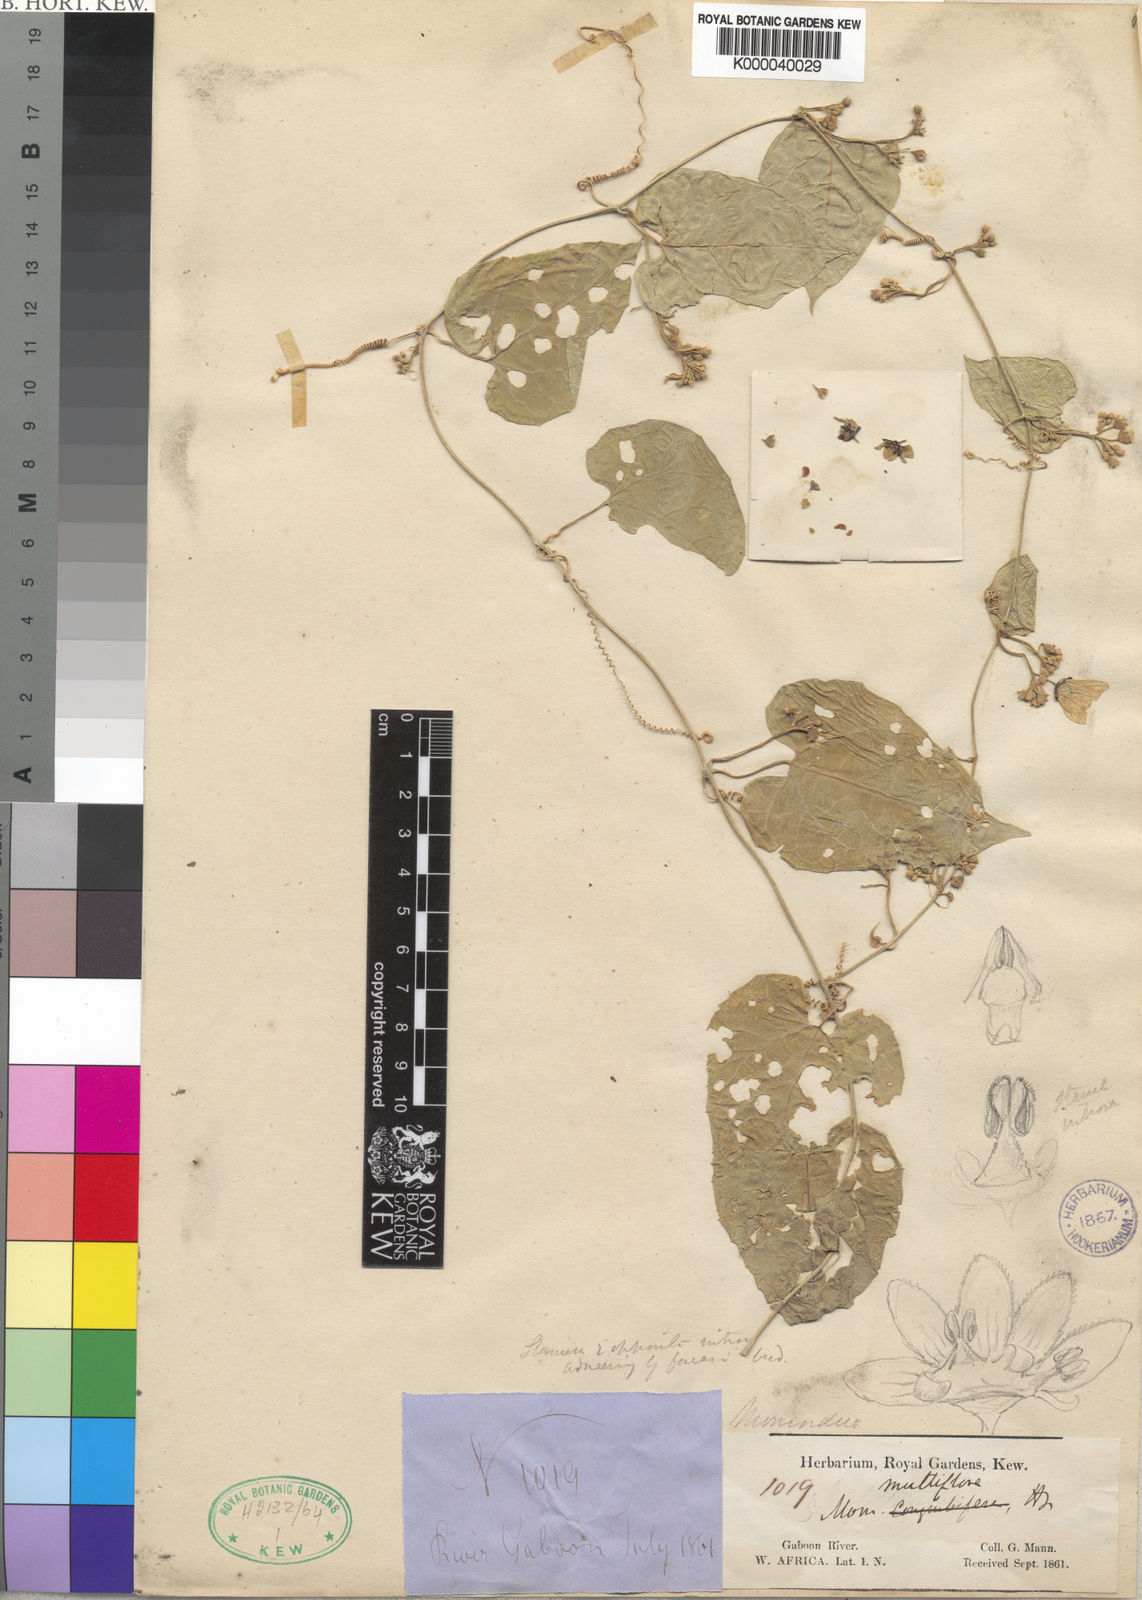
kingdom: Plantae
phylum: Tracheophyta
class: Magnoliopsida
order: Cucurbitales
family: Cucurbitaceae
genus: Momordica
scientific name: Momordica multiflora
